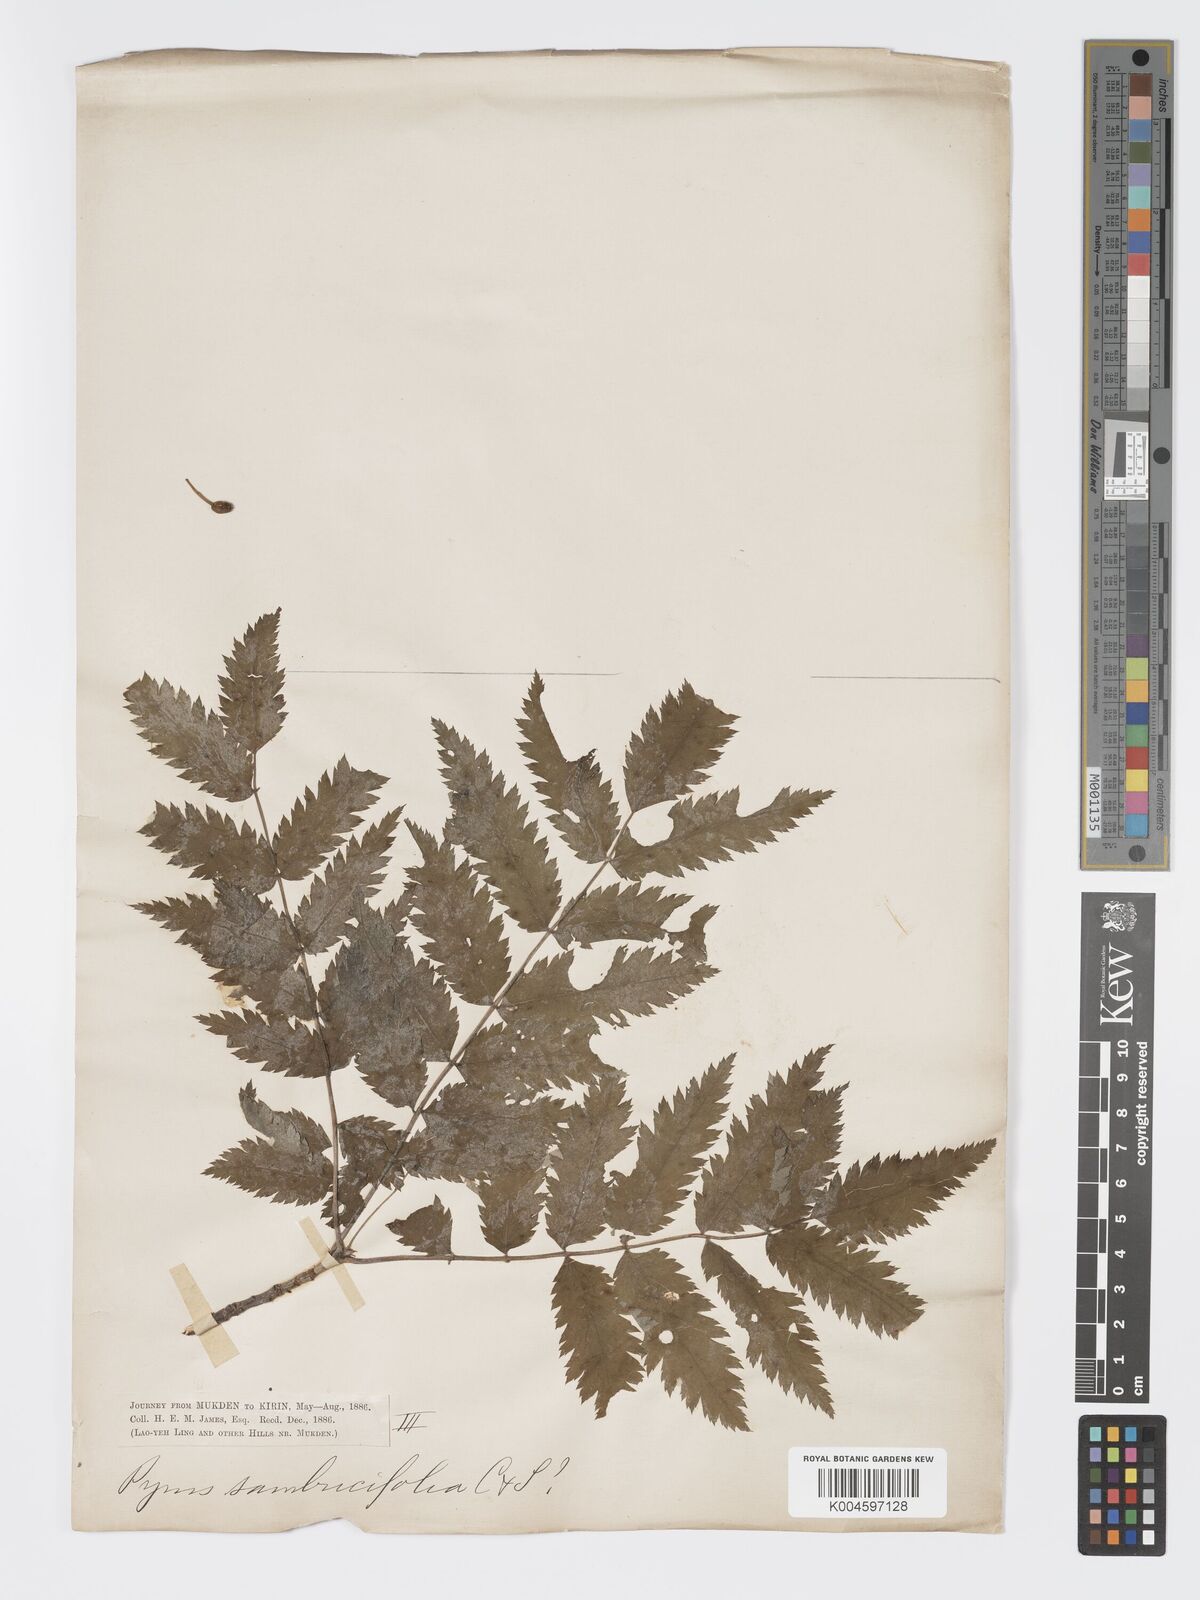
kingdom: Plantae
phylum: Tracheophyta
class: Magnoliopsida
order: Rosales
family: Rosaceae
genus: Sorbus
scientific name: Sorbus aucuparia
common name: Rowan
